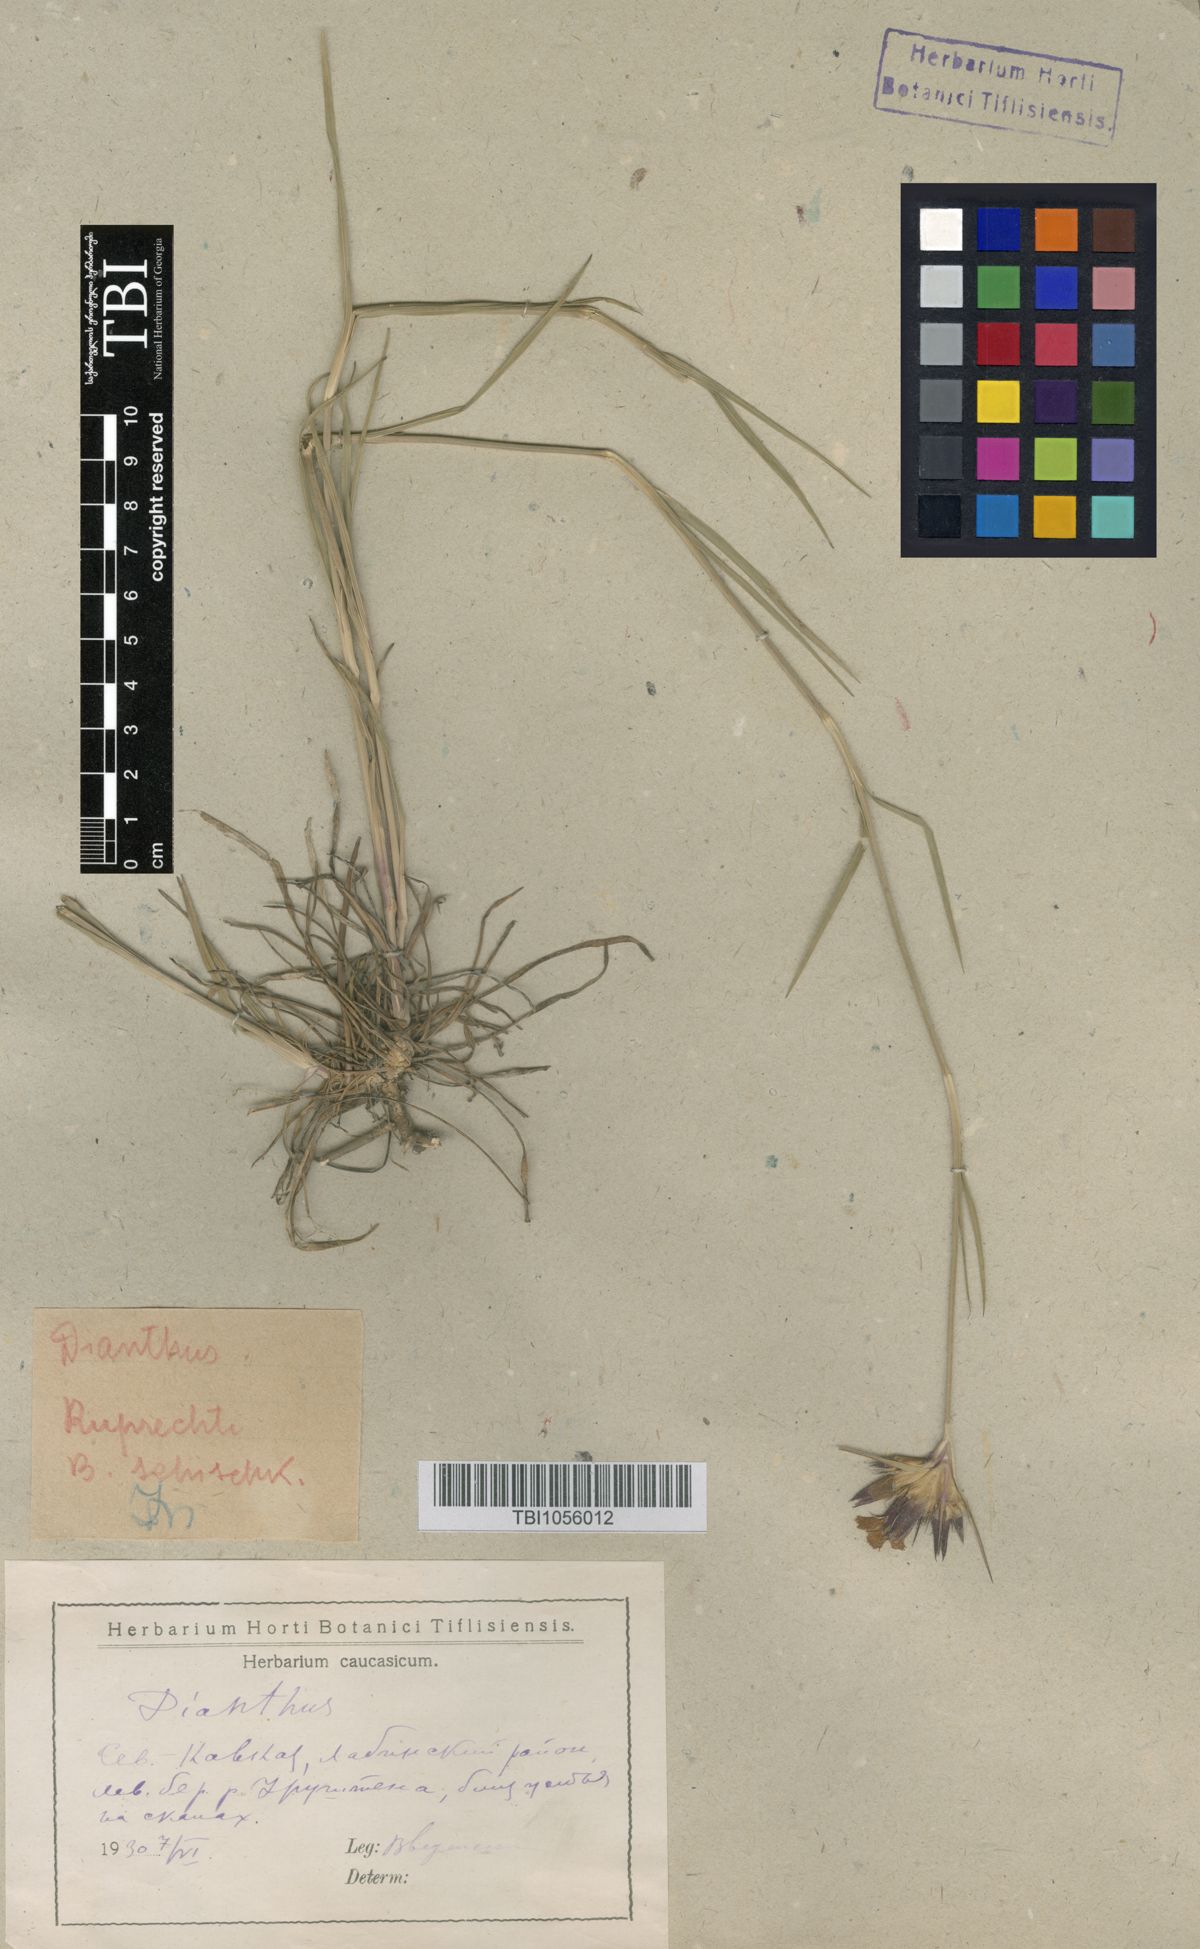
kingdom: Plantae
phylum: Tracheophyta
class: Magnoliopsida
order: Caryophyllales
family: Caryophyllaceae
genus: Dianthus
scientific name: Dianthus ruprechtii
